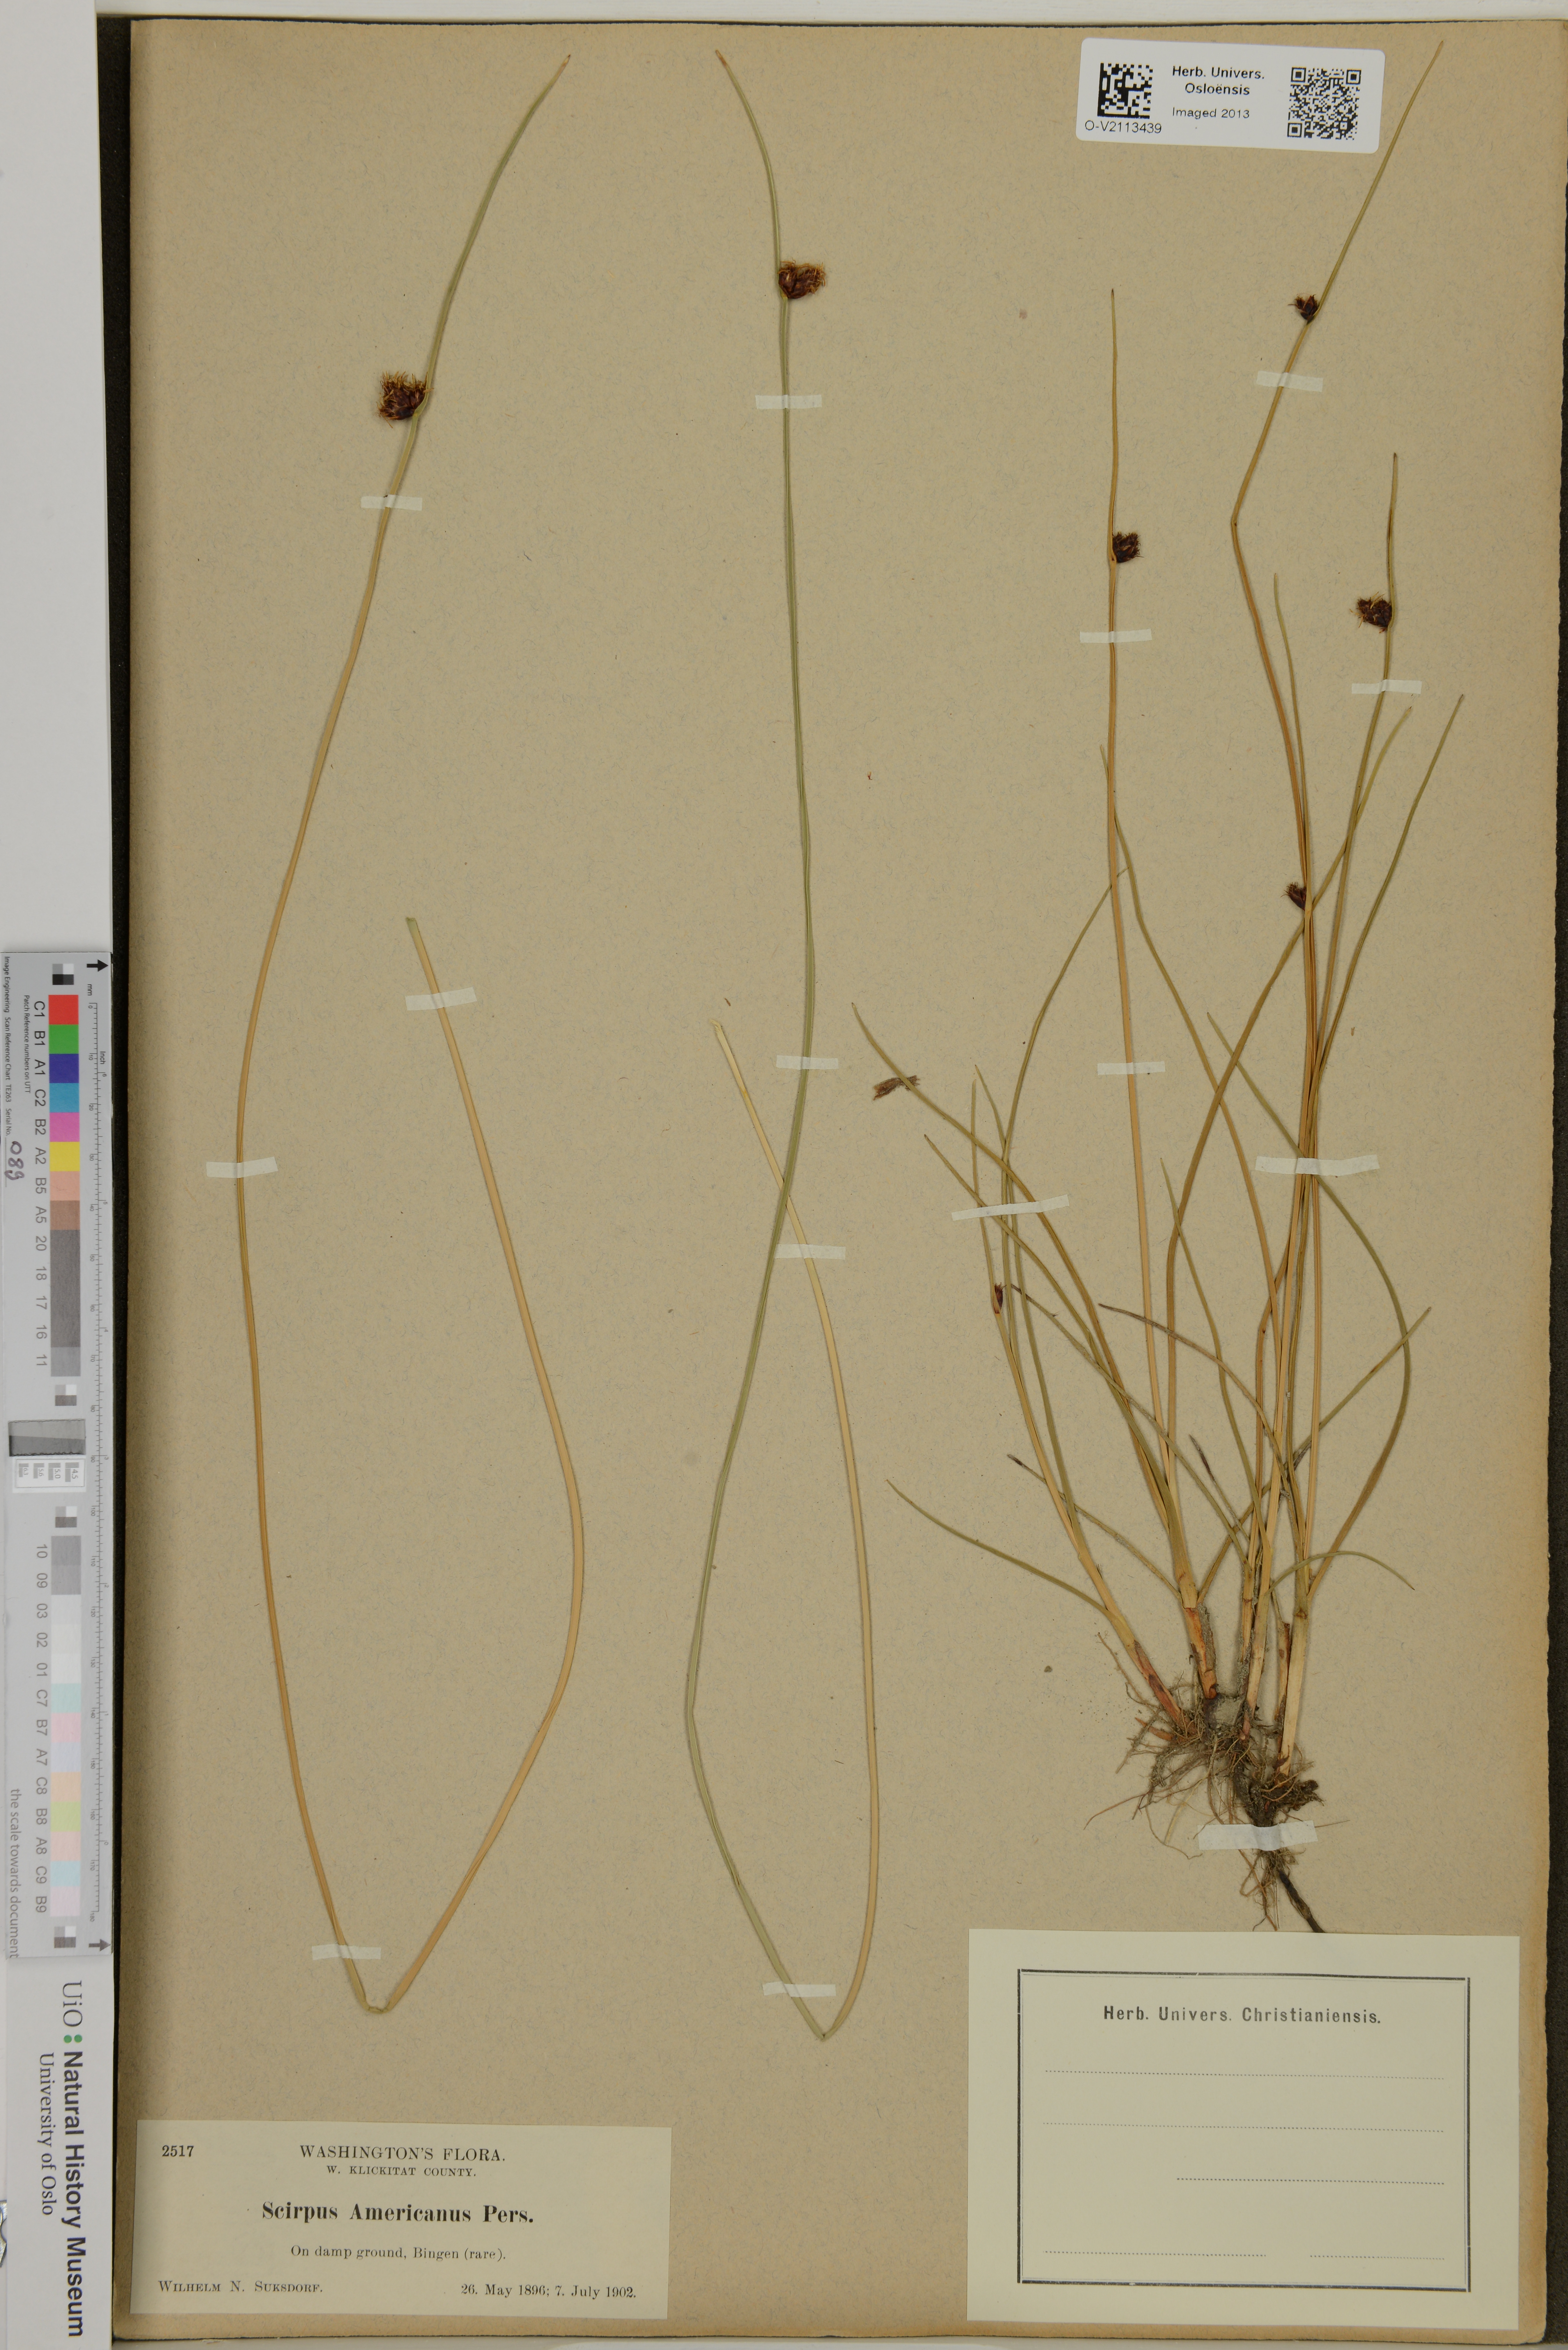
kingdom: Plantae
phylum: Tracheophyta
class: Liliopsida
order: Poales
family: Cyperaceae
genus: Schoenoplectus
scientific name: Schoenoplectus americanus
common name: American three-square bulrush
